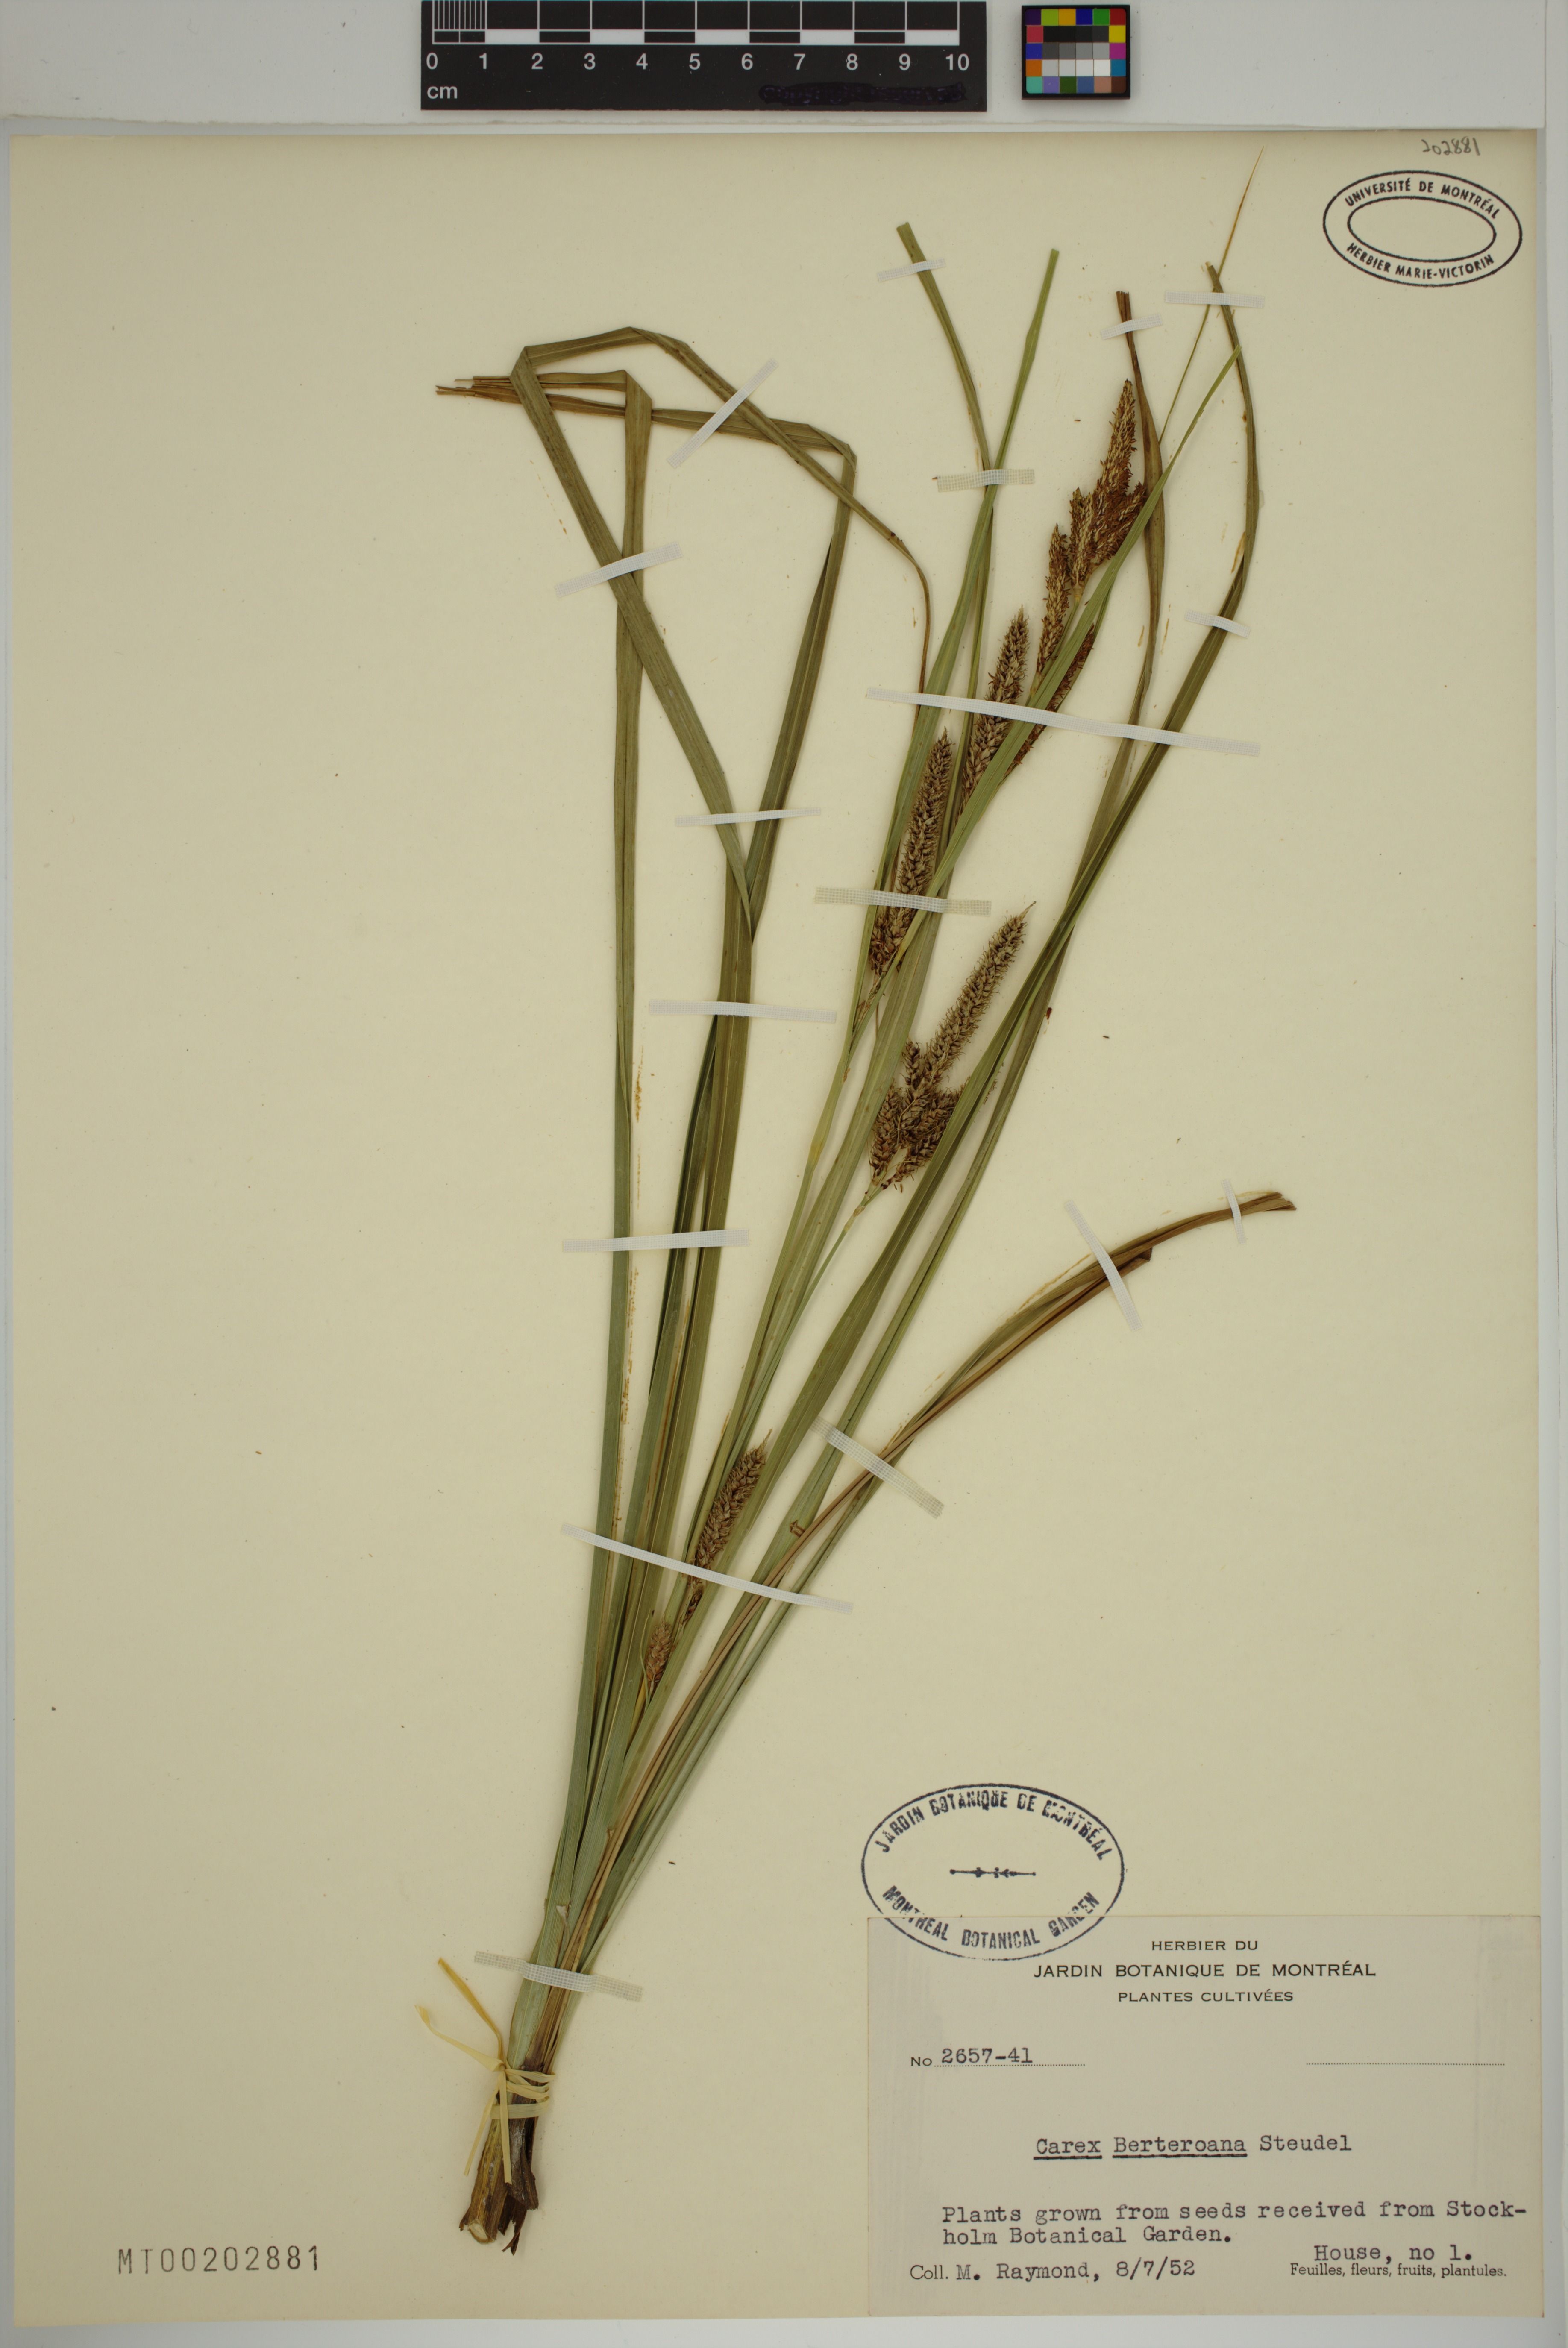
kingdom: Plantae
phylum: Tracheophyta
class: Liliopsida
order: Poales
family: Cyperaceae
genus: Carex
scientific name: Carex berteroniana
